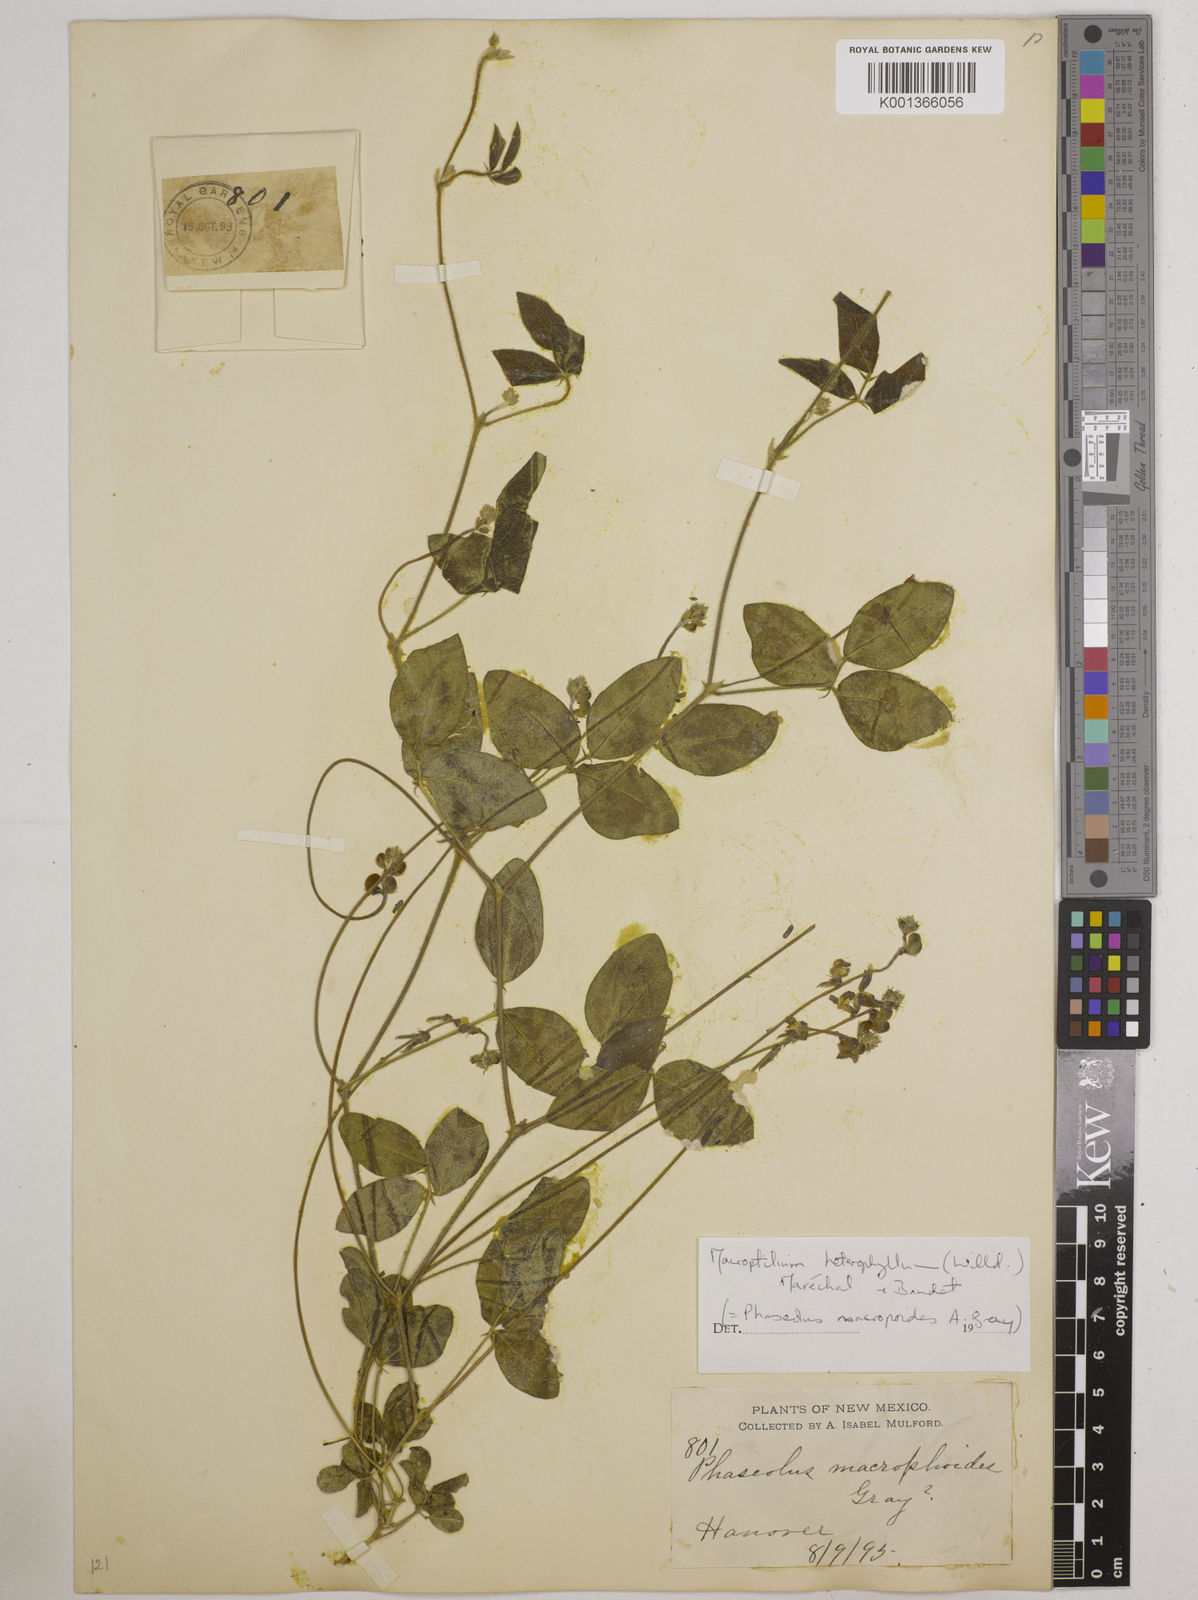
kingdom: Plantae
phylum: Tracheophyta
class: Magnoliopsida
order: Fabales
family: Fabaceae
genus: Macroptilium
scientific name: Macroptilium gibbosifolium
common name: Variableleaf bushbean
